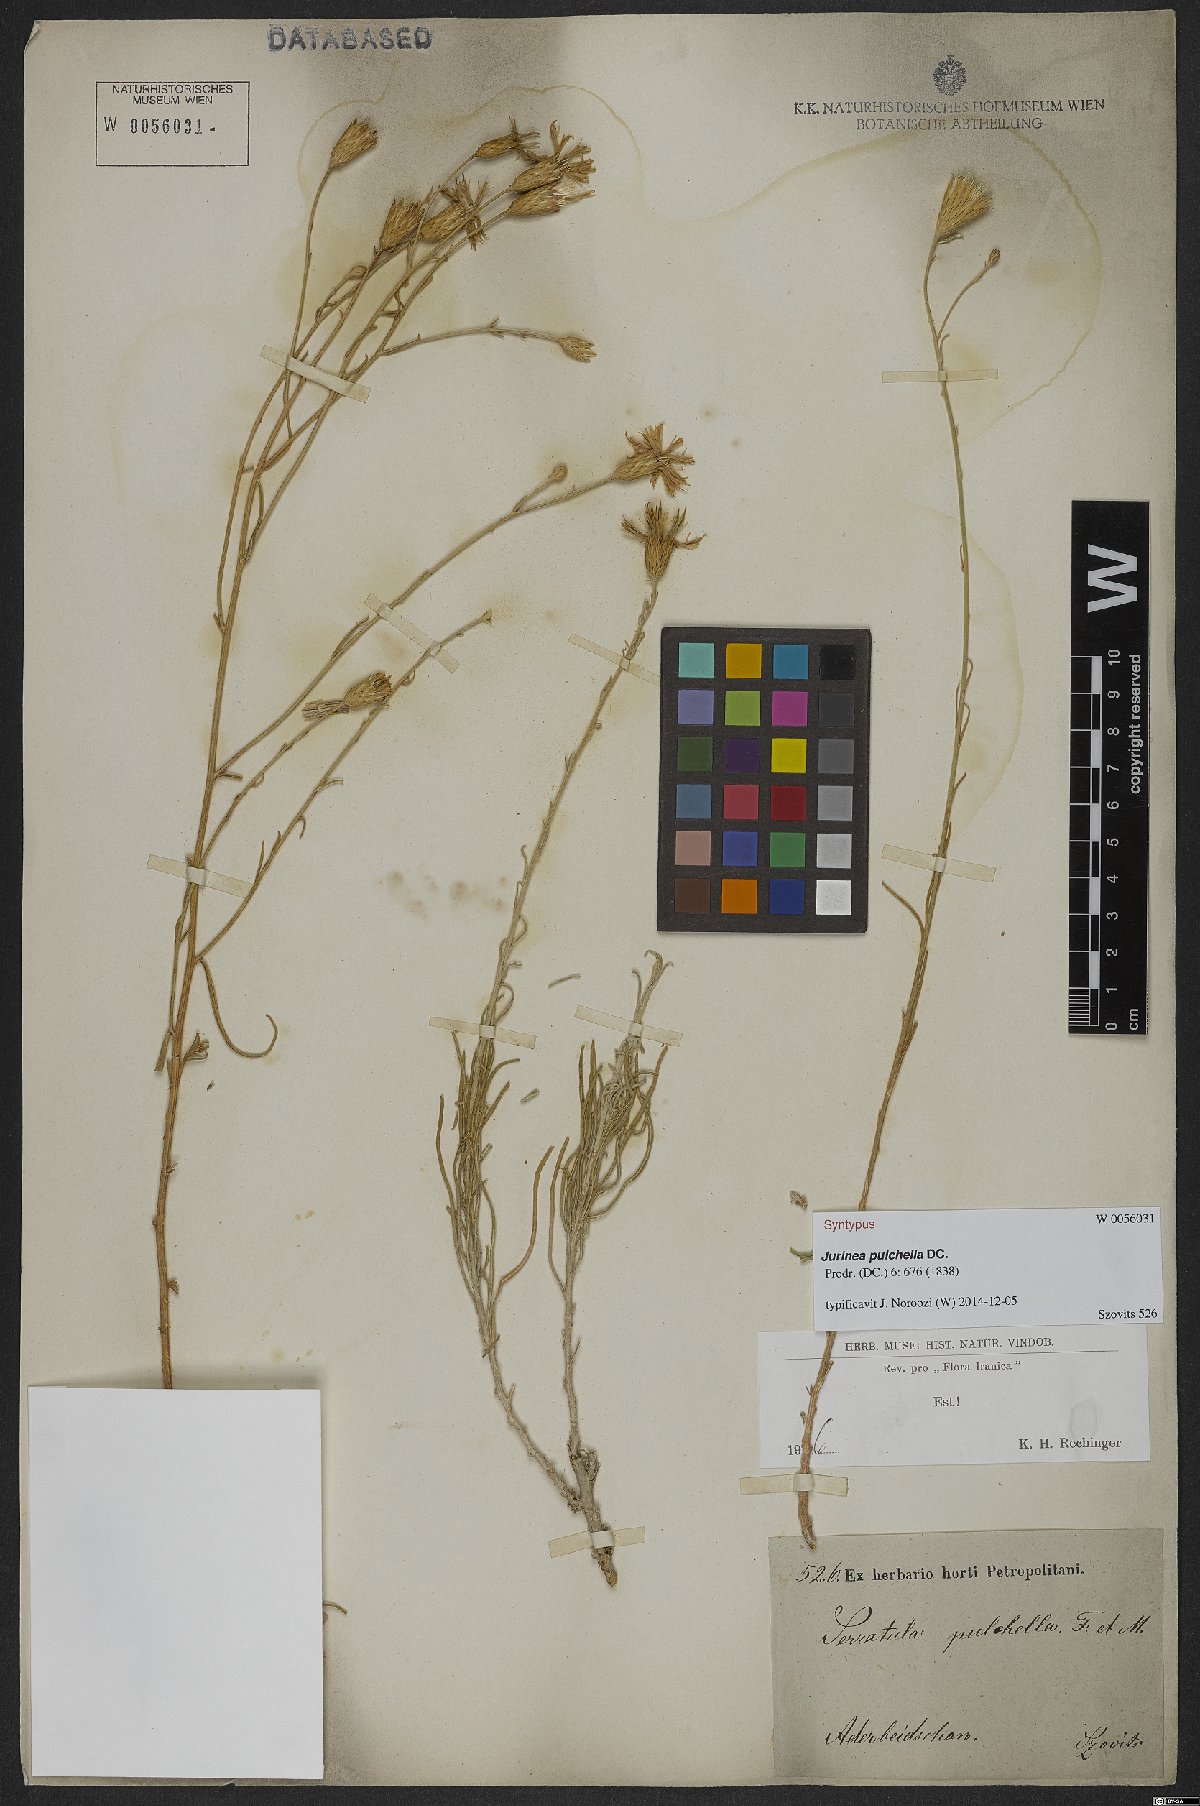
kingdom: Plantae
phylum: Tracheophyta
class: Magnoliopsida
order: Asterales
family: Asteraceae
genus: Jurinea
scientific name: Jurinea pulchella
